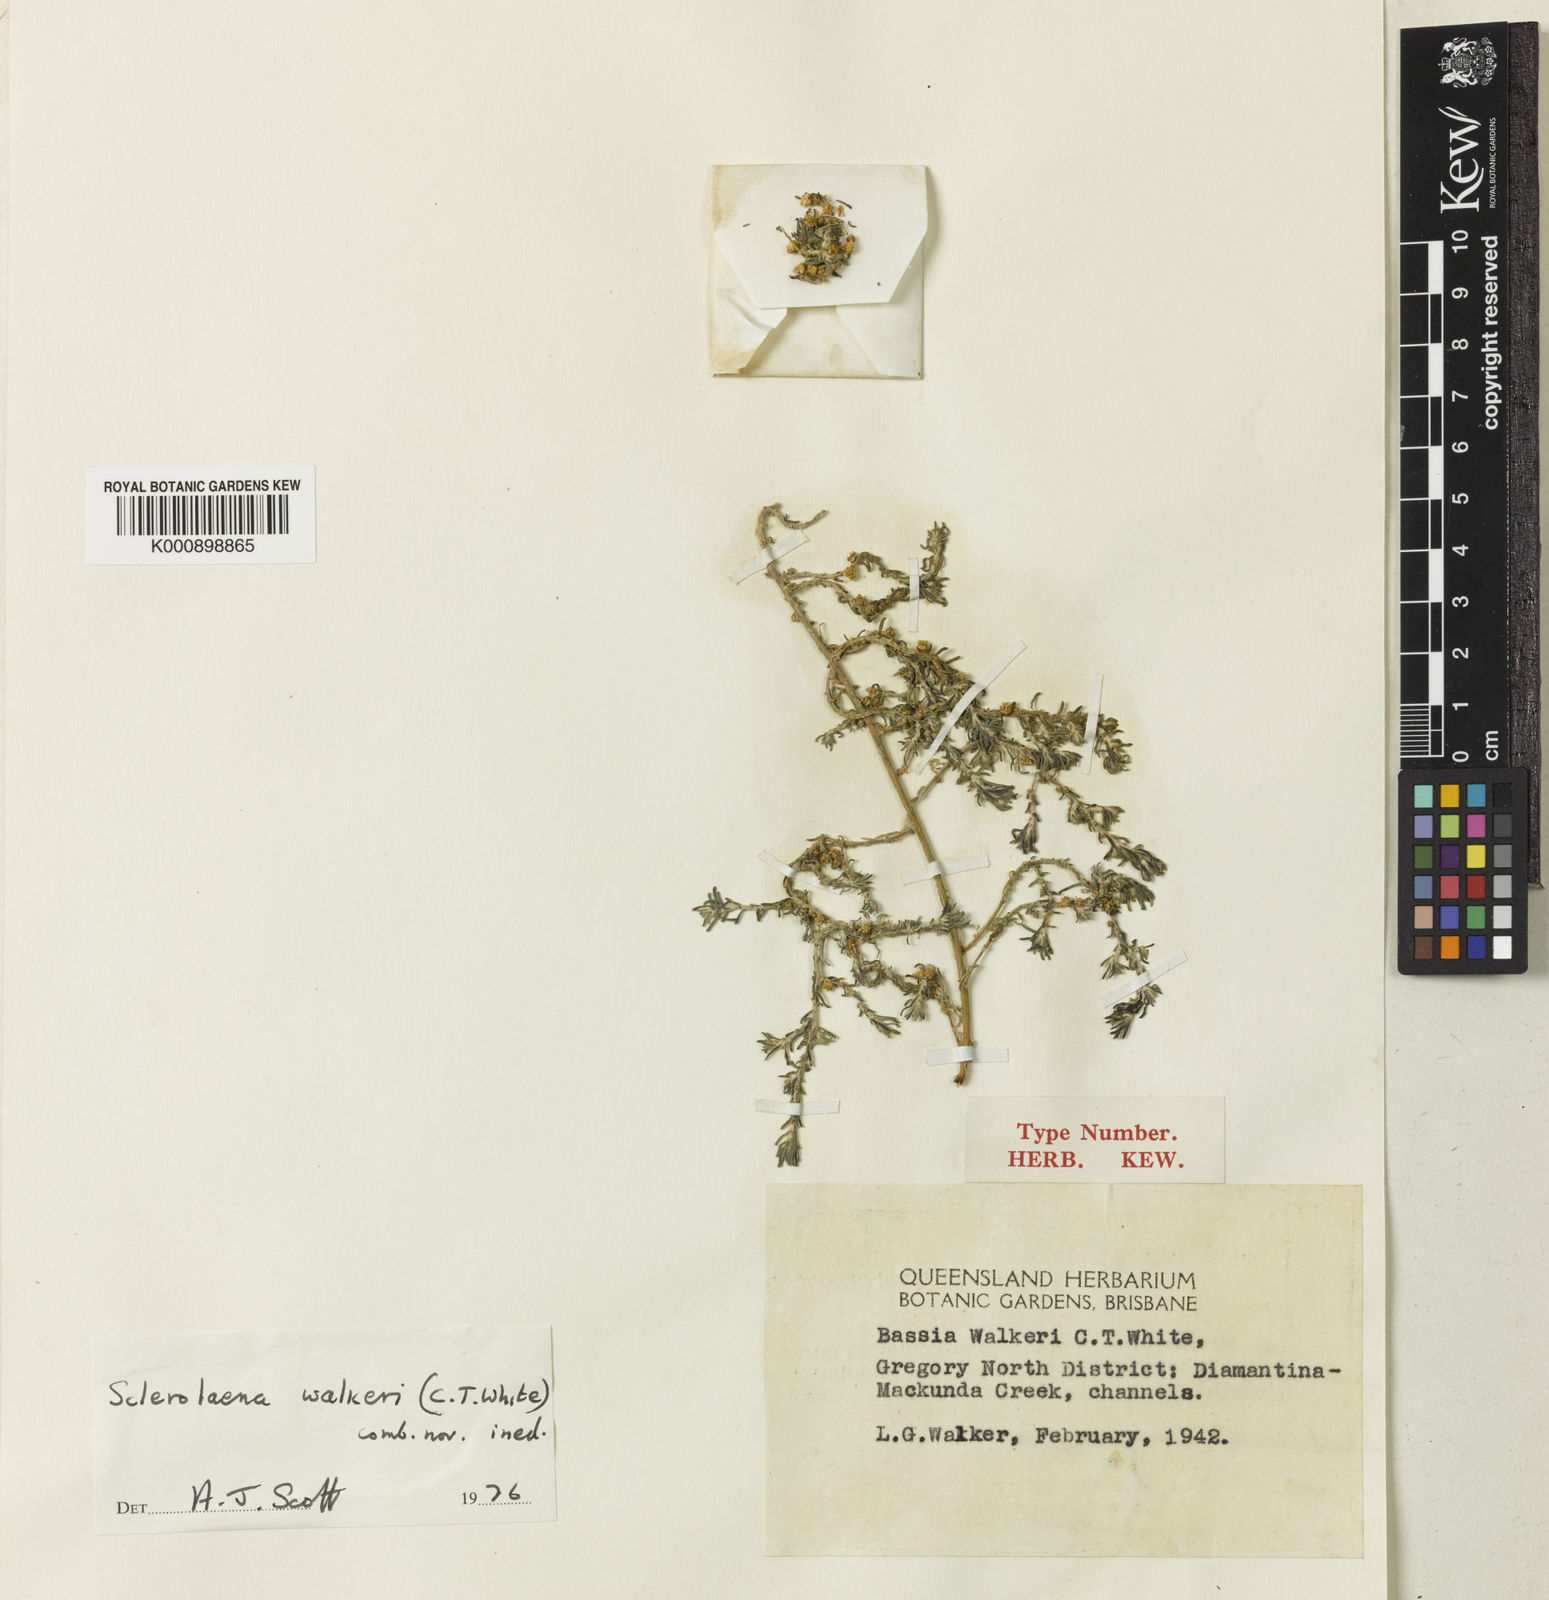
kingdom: Plantae
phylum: Tracheophyta
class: Magnoliopsida
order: Caryophyllales
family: Amaranthaceae
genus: Sclerolaena
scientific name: Sclerolaena walkeri
